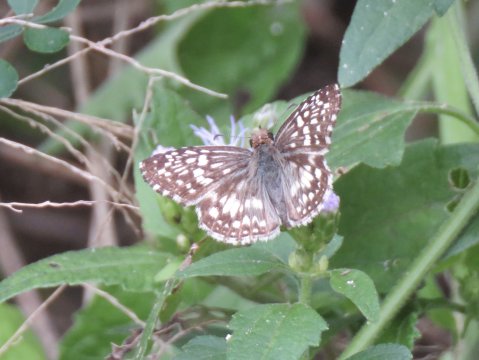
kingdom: Animalia
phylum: Arthropoda
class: Insecta
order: Lepidoptera
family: Hesperiidae
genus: Pyrgus
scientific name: Pyrgus oileus
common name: Tropical Checkered-Skipper
